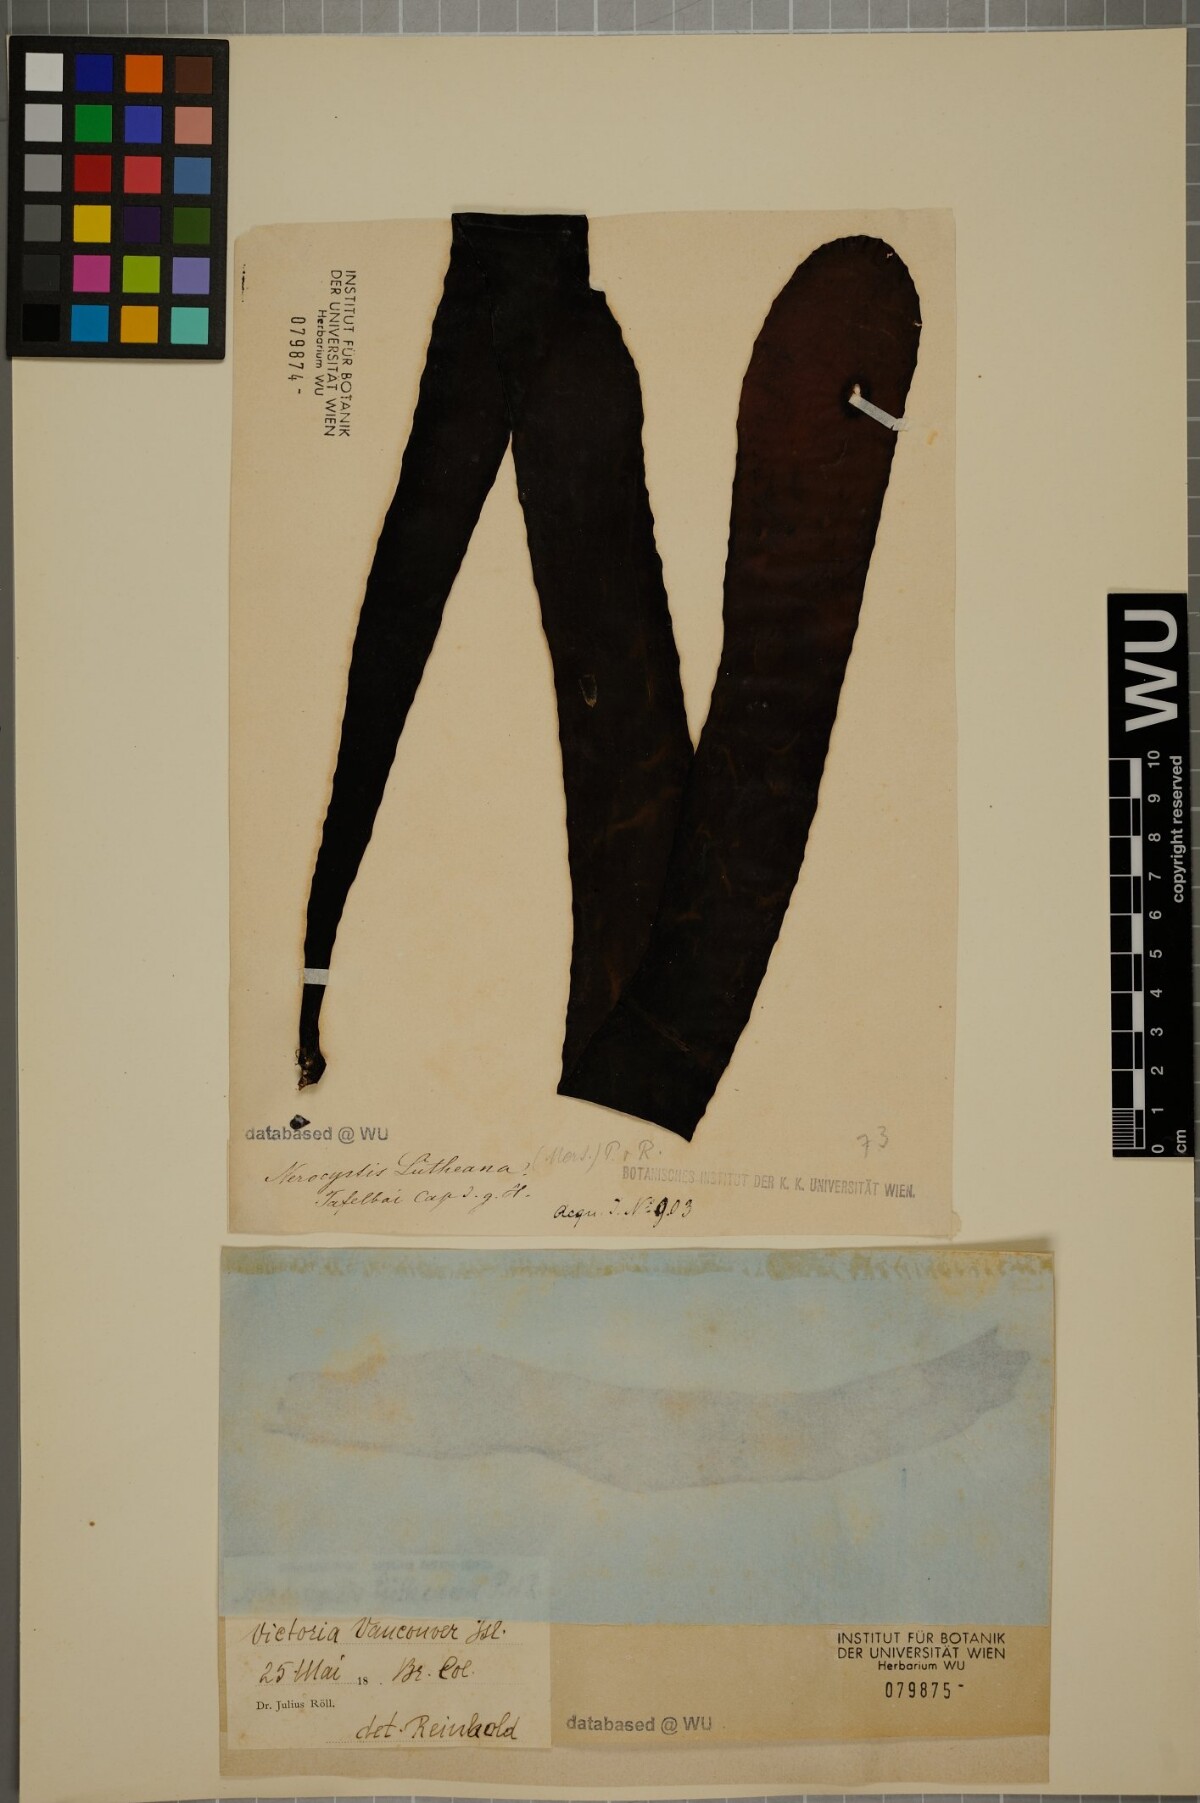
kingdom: Chromista
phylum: Ochrophyta
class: Phaeophyceae
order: Laminariales
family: Laminariaceae
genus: Nereocystis
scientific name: Nereocystis luetkeana
